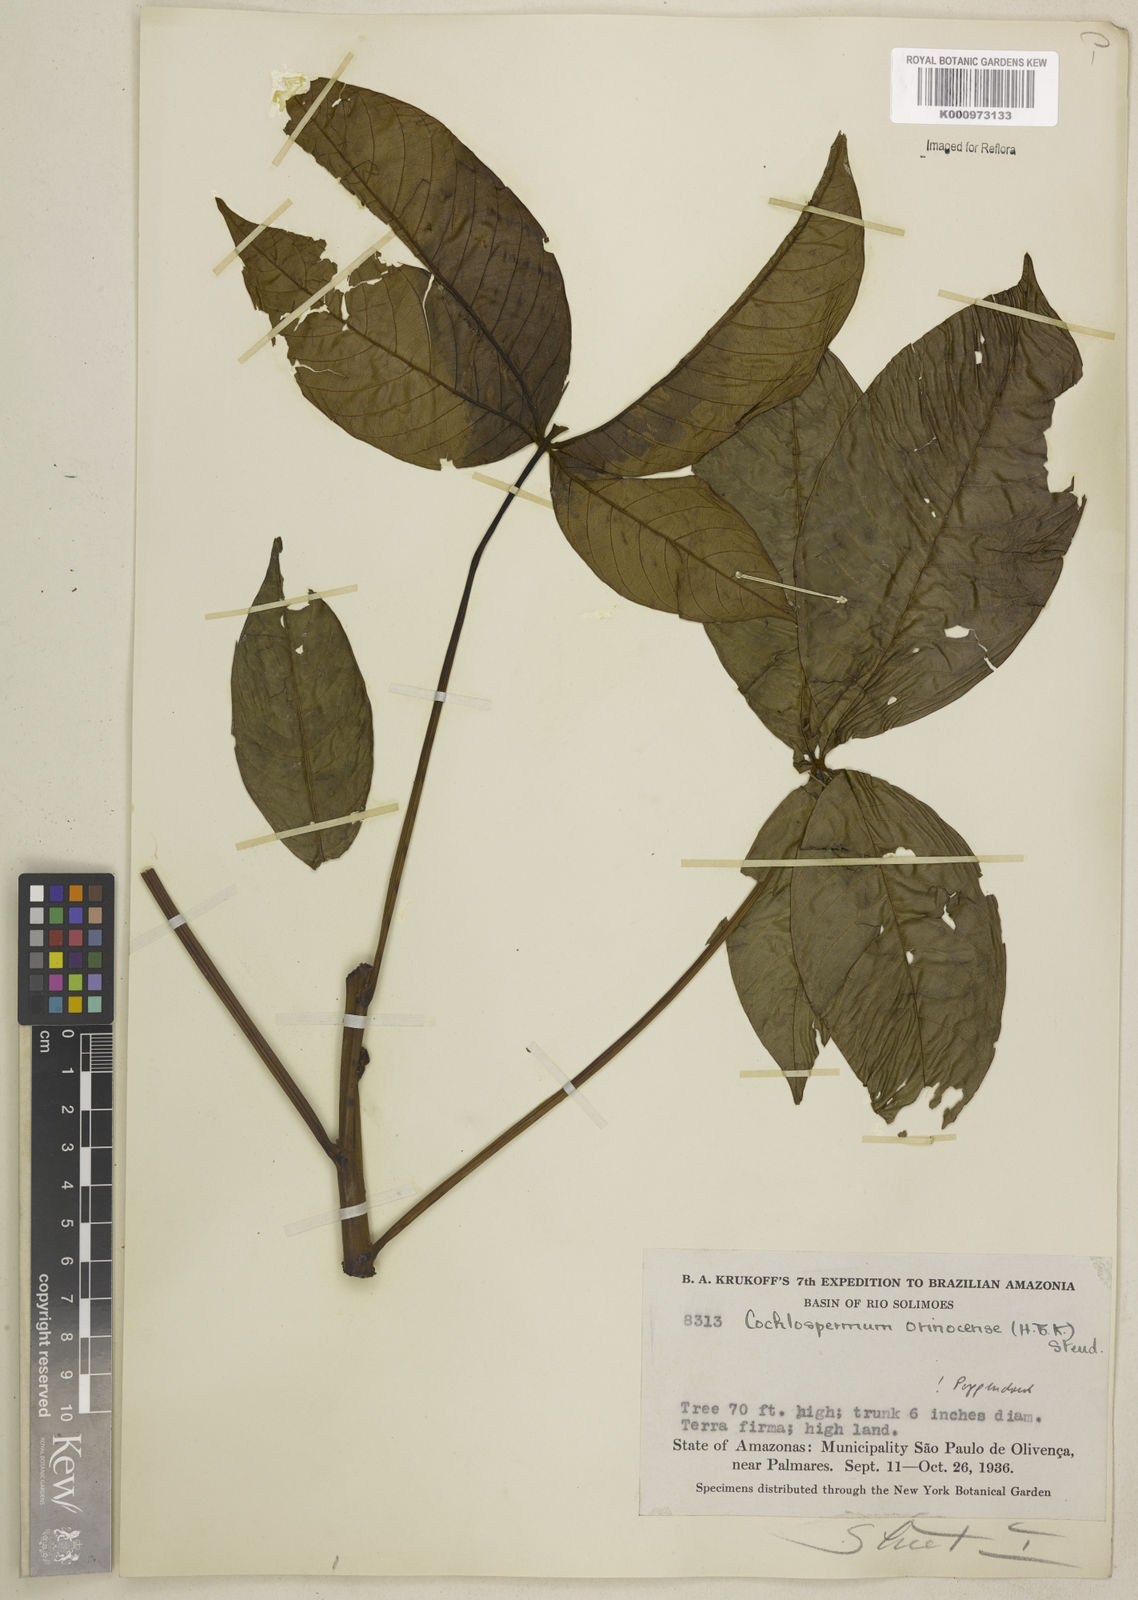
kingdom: Plantae
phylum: Tracheophyta
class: Magnoliopsida
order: Malvales
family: Cochlospermaceae
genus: Cochlospermum
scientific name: Cochlospermum orinocense
